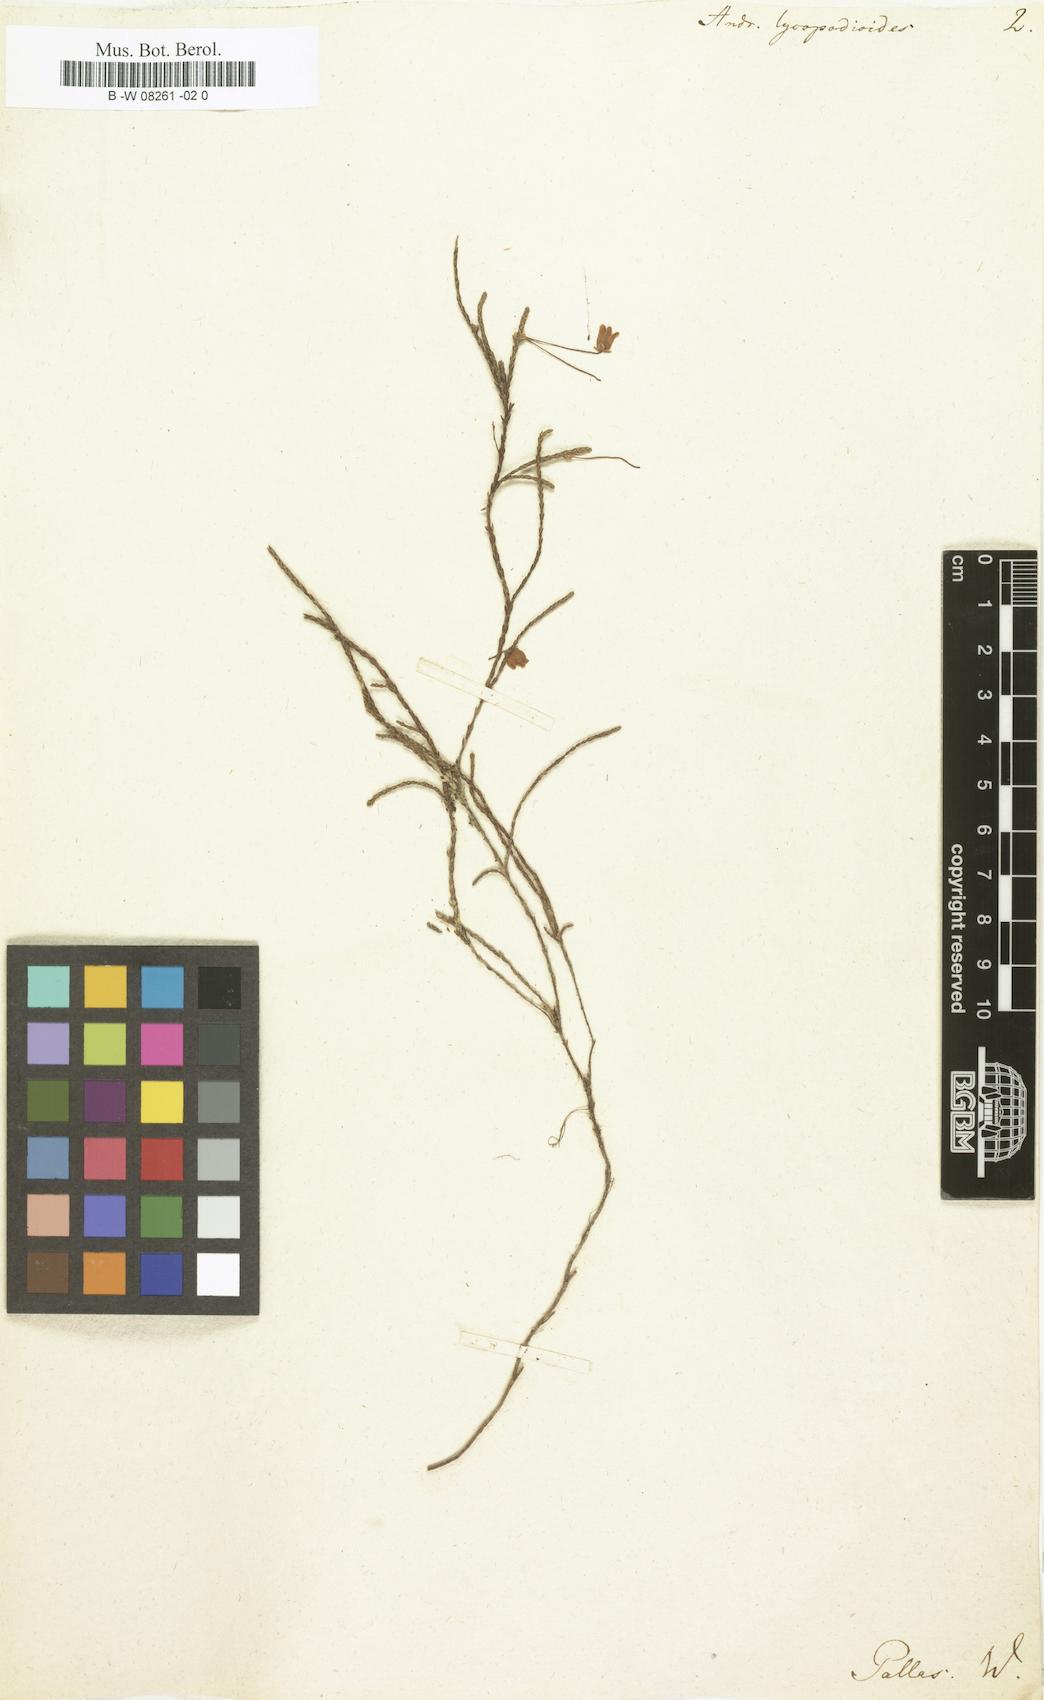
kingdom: Plantae
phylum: Tracheophyta
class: Magnoliopsida
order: Ericales
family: Ericaceae
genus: Cassiope
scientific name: Cassiope lycopodioides
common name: Clubmoss mountain heather
